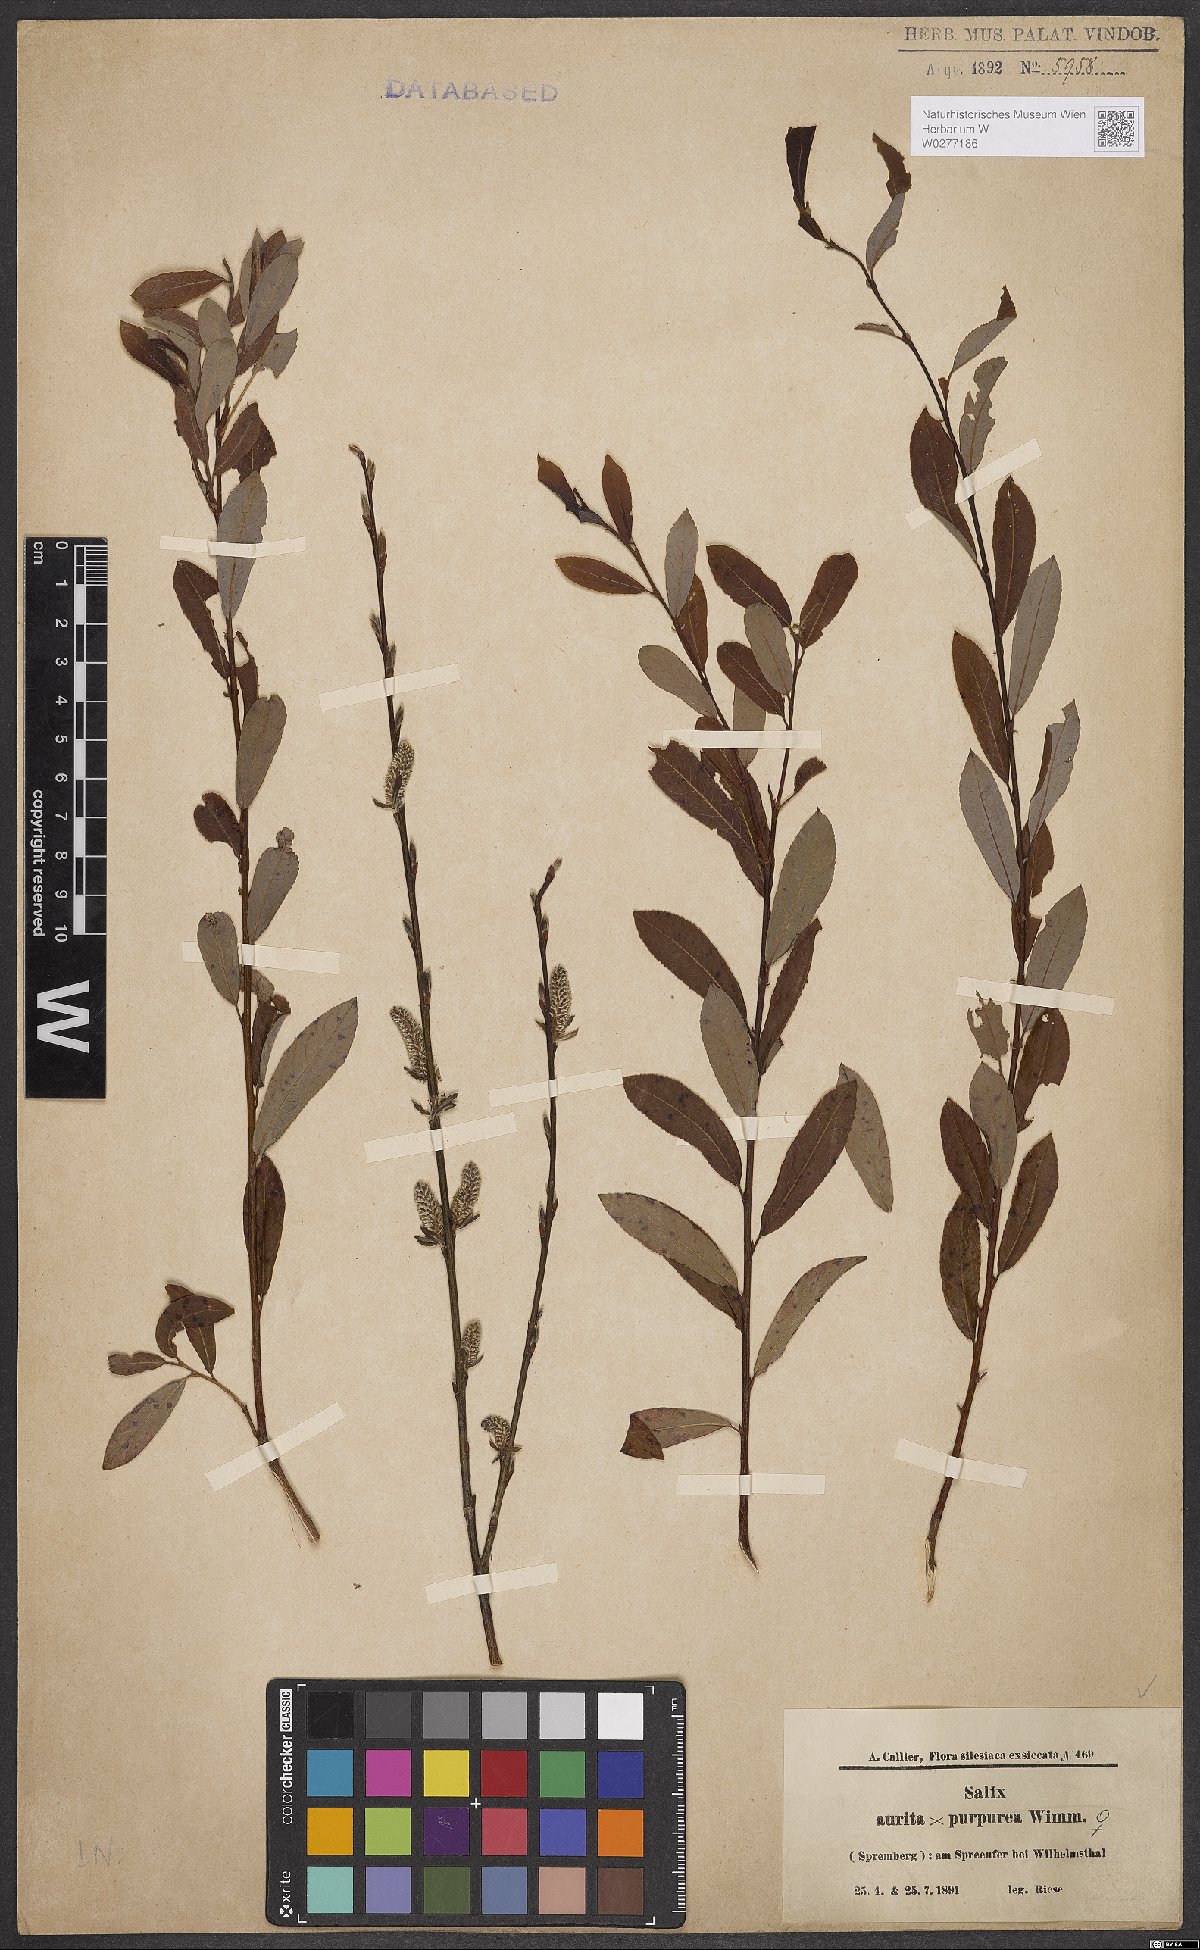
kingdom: Plantae
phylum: Tracheophyta
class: Magnoliopsida
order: Malpighiales
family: Salicaceae
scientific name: Salicaceae
